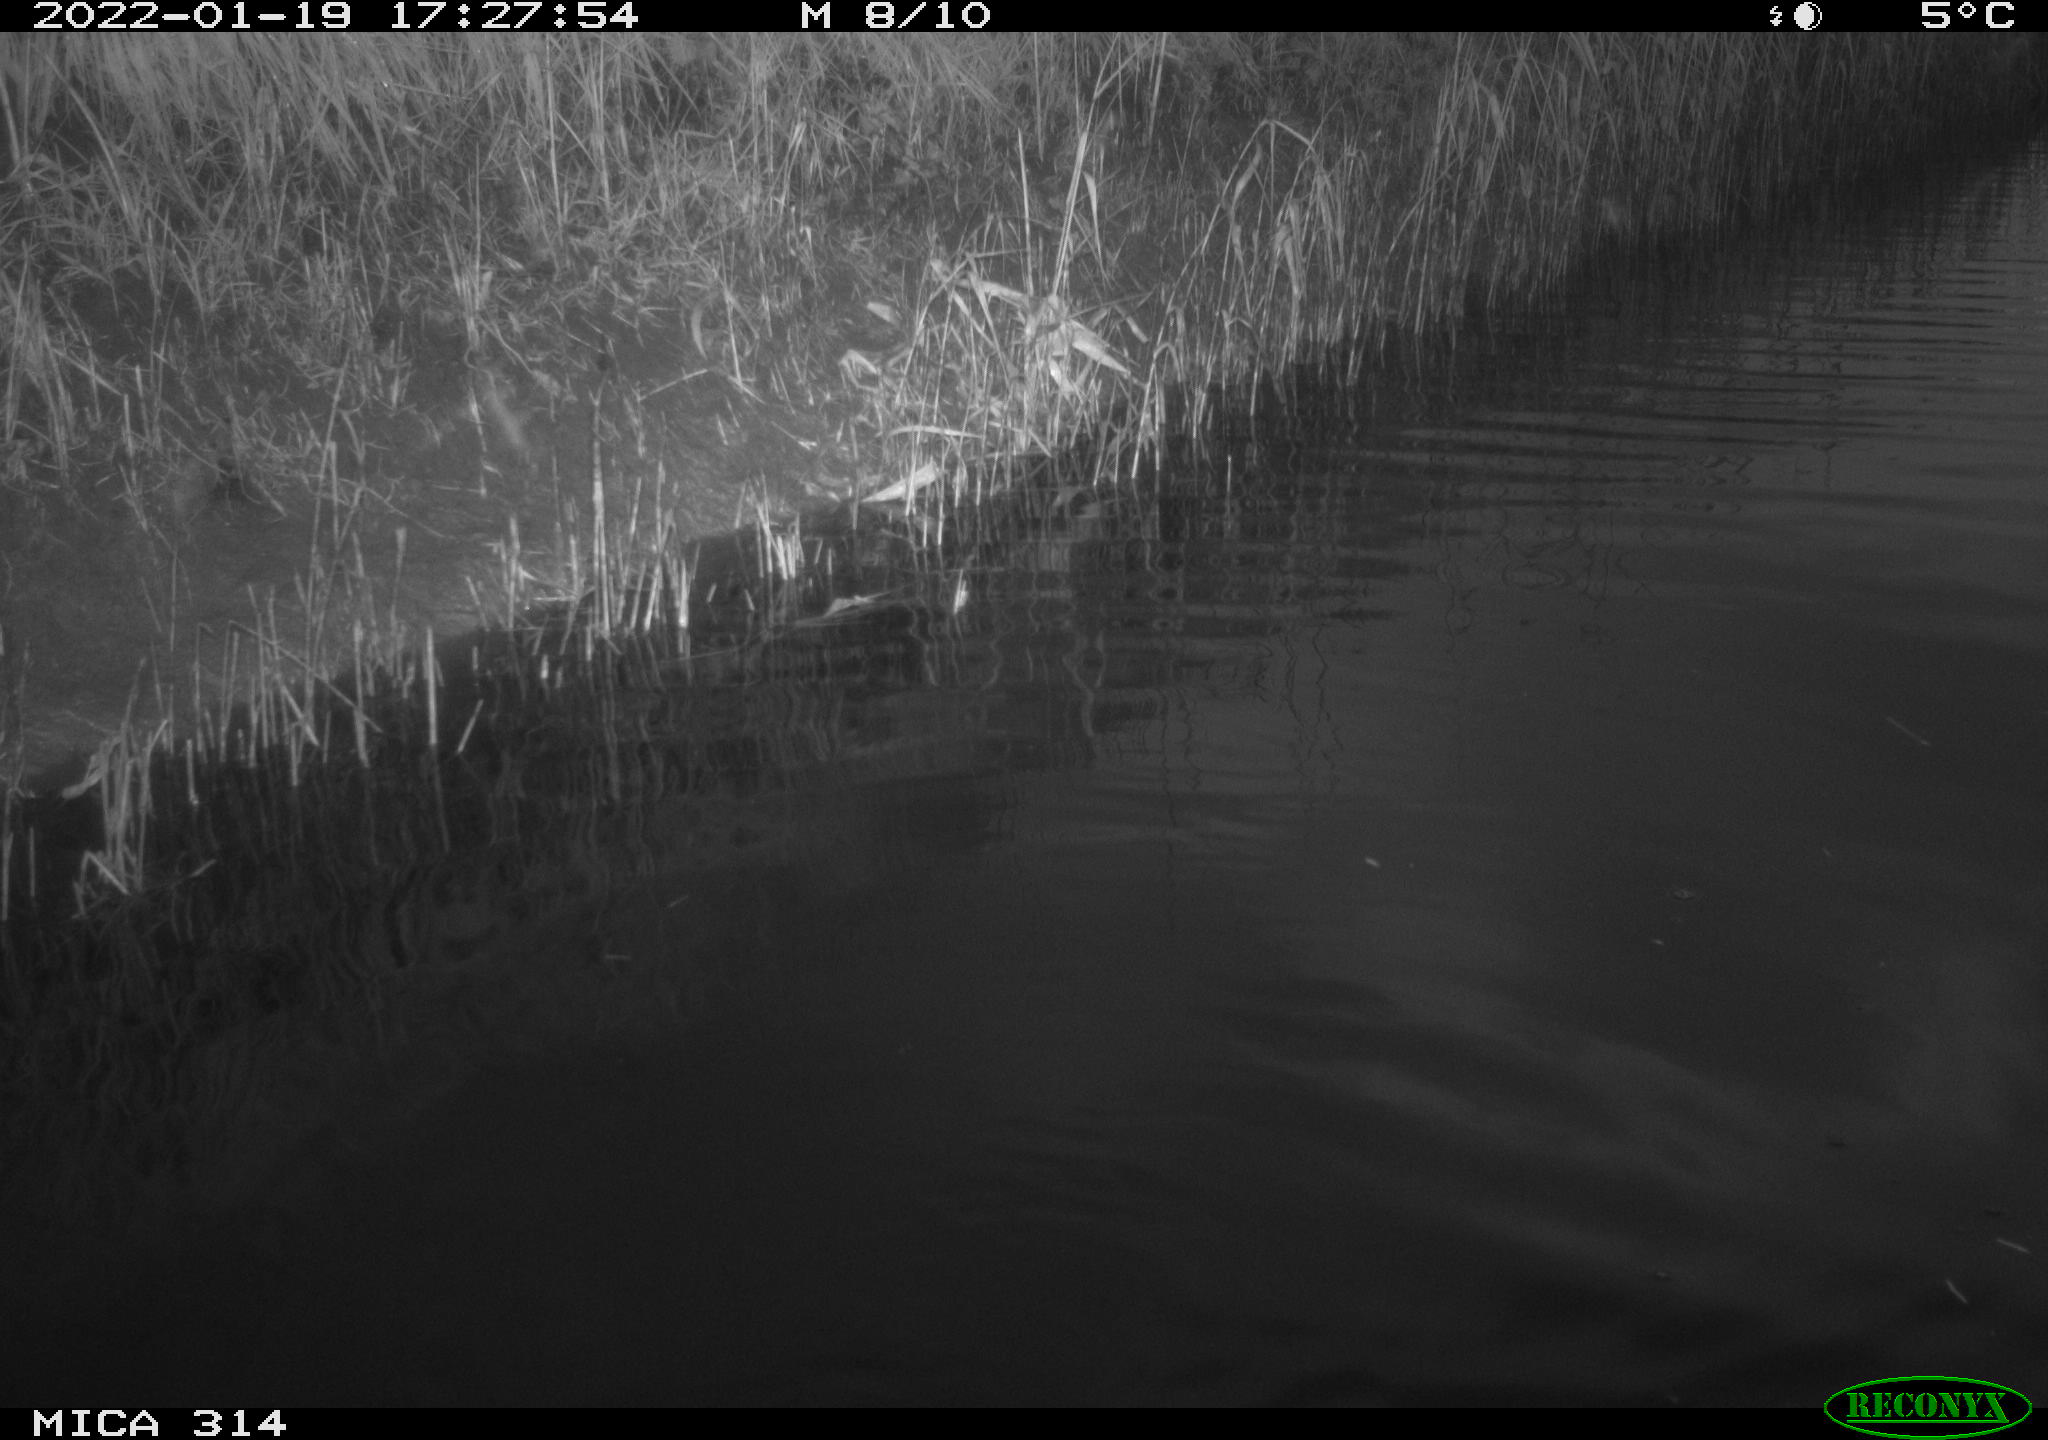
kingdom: Animalia
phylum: Chordata
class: Aves
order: Gruiformes
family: Rallidae
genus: Gallinula
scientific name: Gallinula chloropus
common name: Common moorhen
